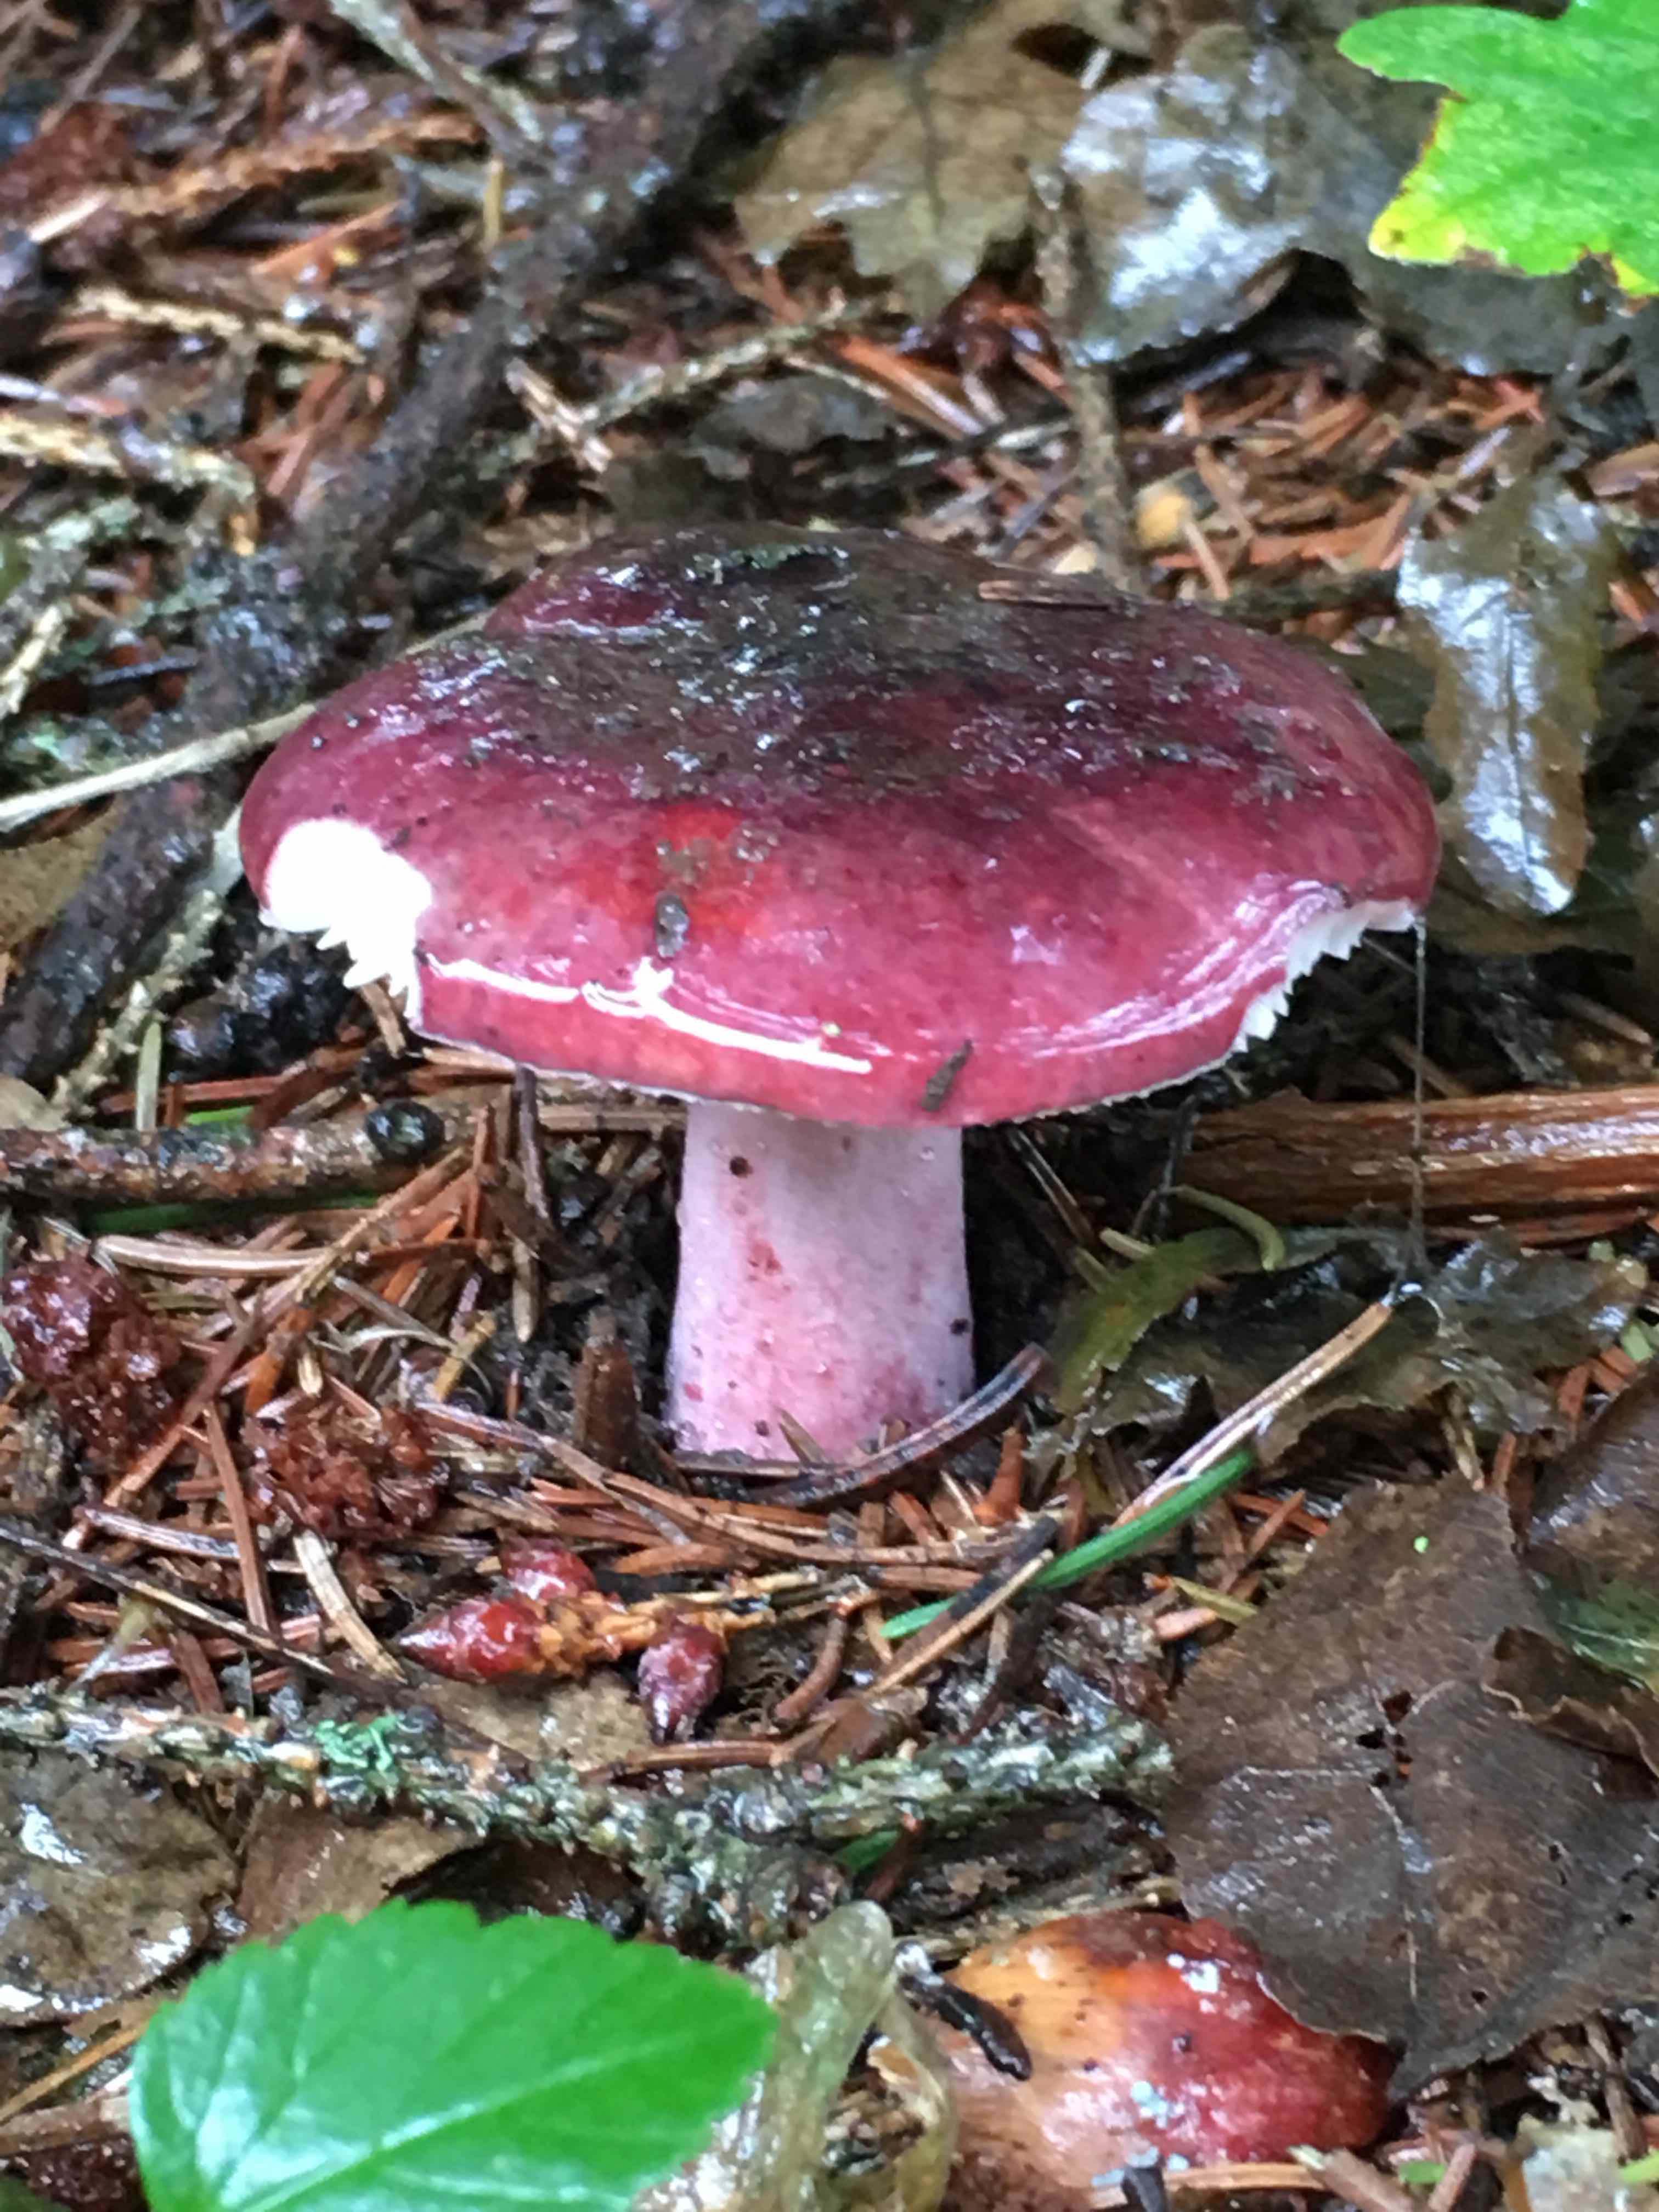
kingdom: Fungi
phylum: Basidiomycota
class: Agaricomycetes
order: Russulales
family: Russulaceae
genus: Russula
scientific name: Russula
